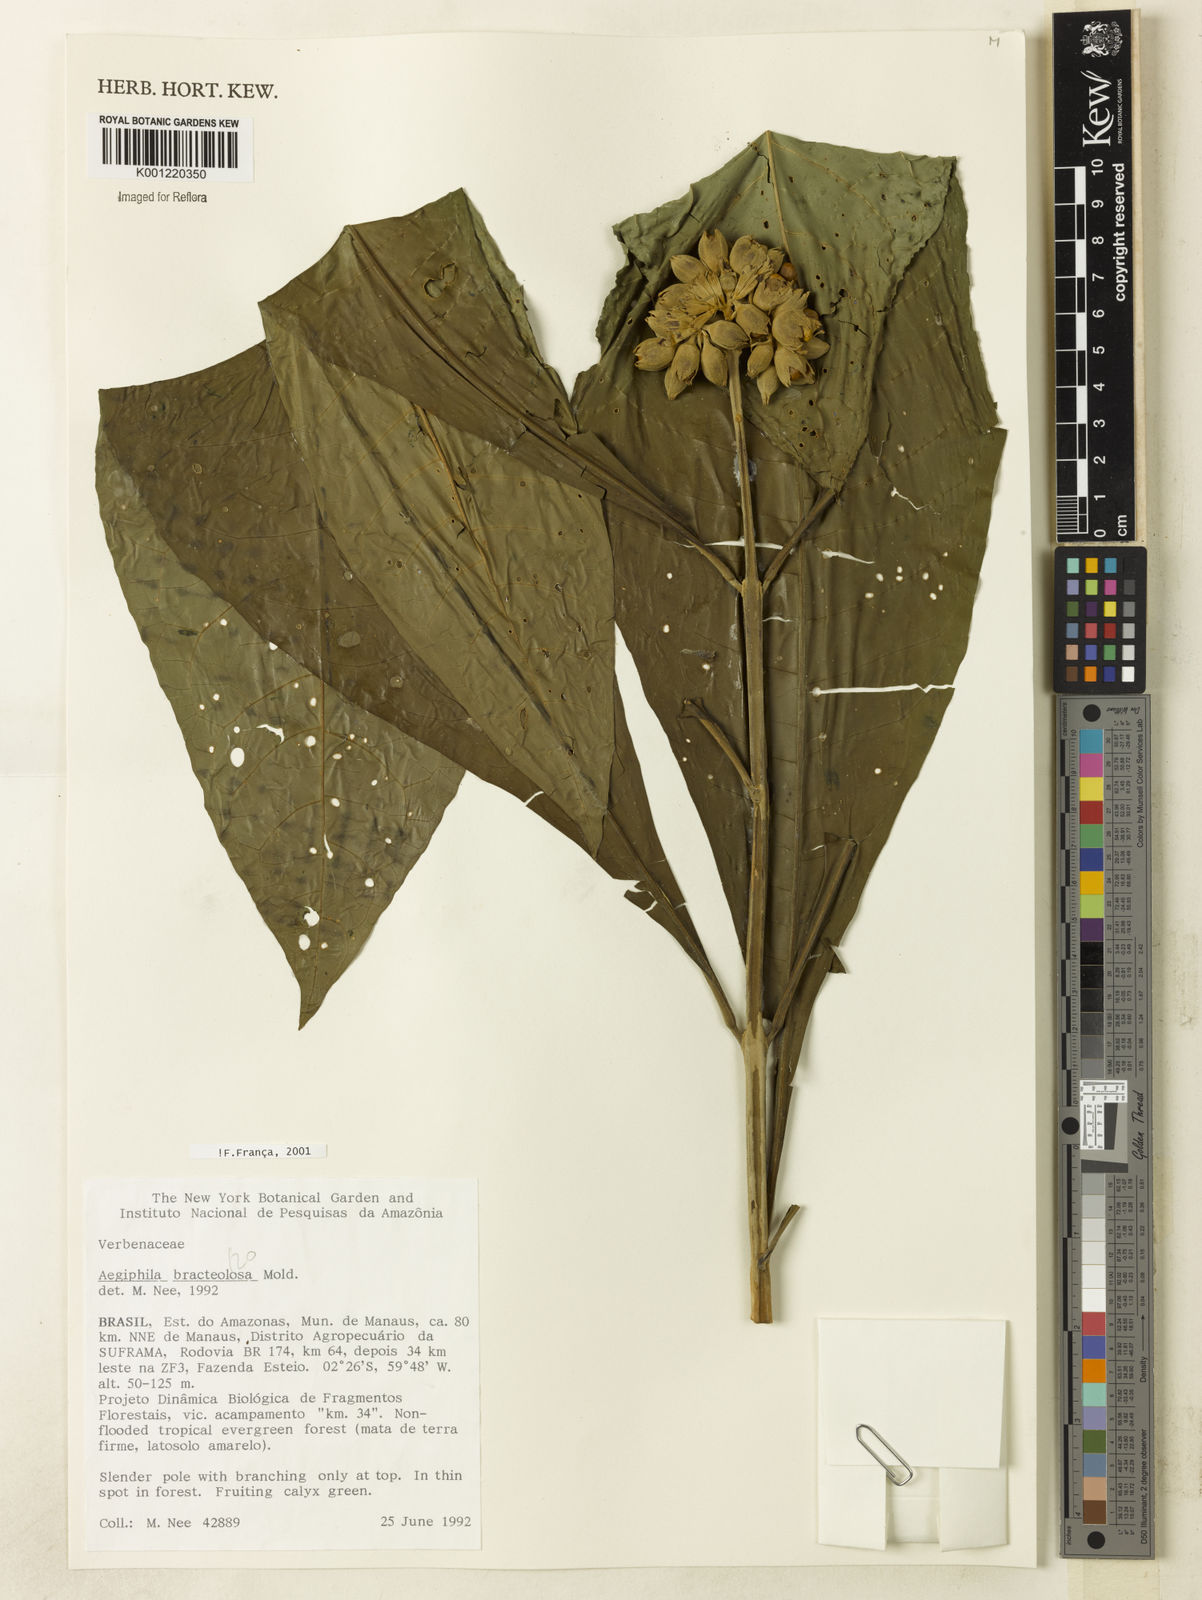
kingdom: Plantae
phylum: Tracheophyta
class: Magnoliopsida
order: Lamiales
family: Lamiaceae
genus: Aegiphila
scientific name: Aegiphila bracteolosa
